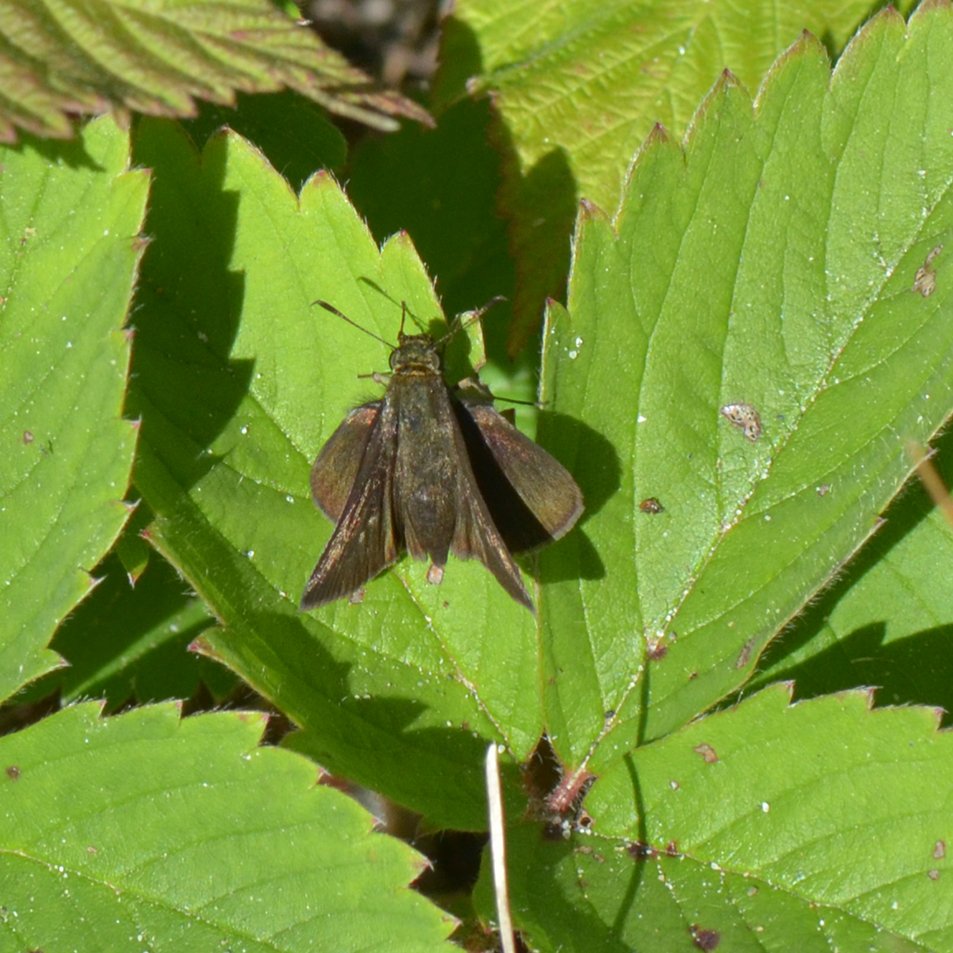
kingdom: Animalia
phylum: Arthropoda
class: Insecta
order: Lepidoptera
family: Hesperiidae
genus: Euphyes
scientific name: Euphyes vestris
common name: Dun Skipper
